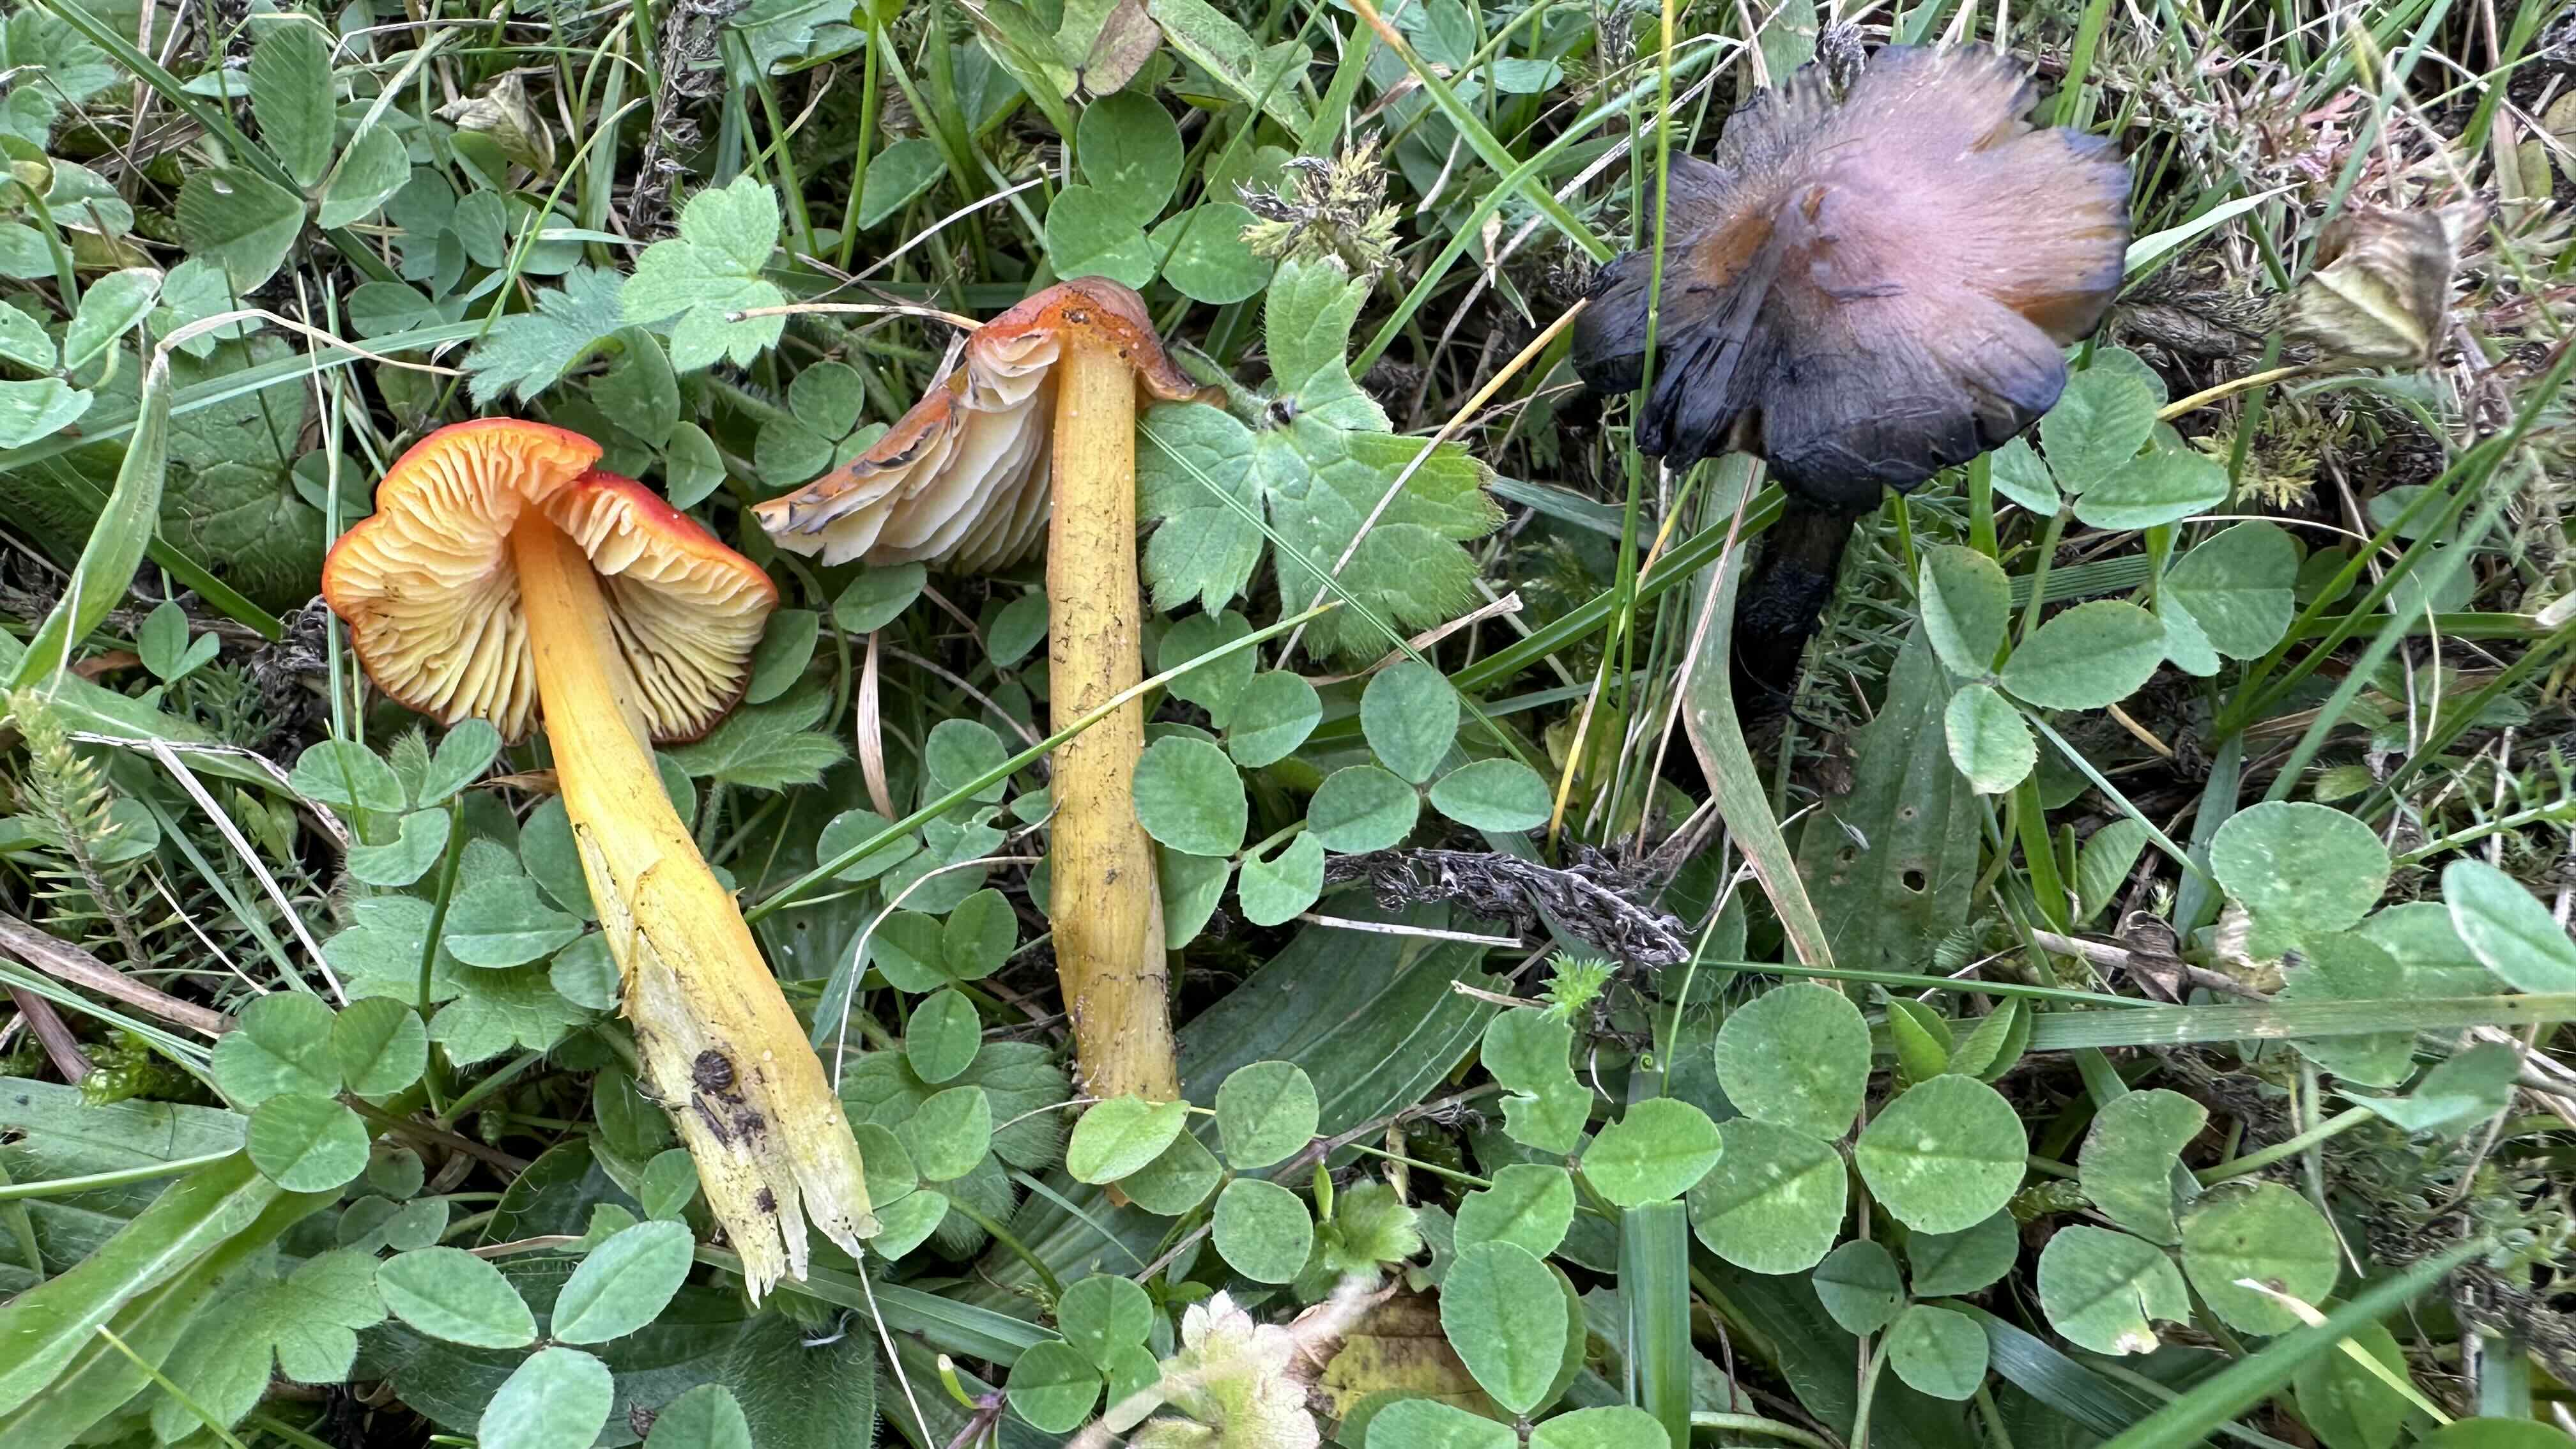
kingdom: Fungi
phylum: Basidiomycota
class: Agaricomycetes
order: Agaricales
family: Hygrophoraceae
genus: Hygrocybe
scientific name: Hygrocybe conica
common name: kegle-vokshat
